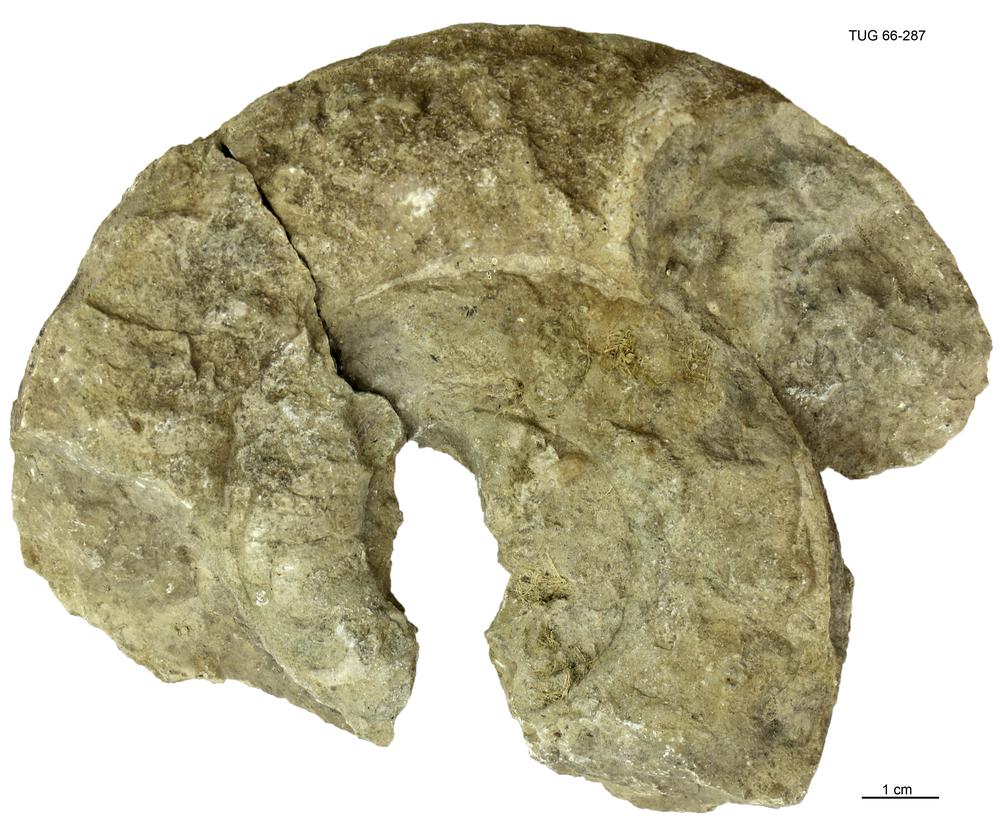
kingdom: Animalia
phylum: Mollusca
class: Cephalopoda
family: Trocholitidae
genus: Discoceras
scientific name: Discoceras antiquissimus
